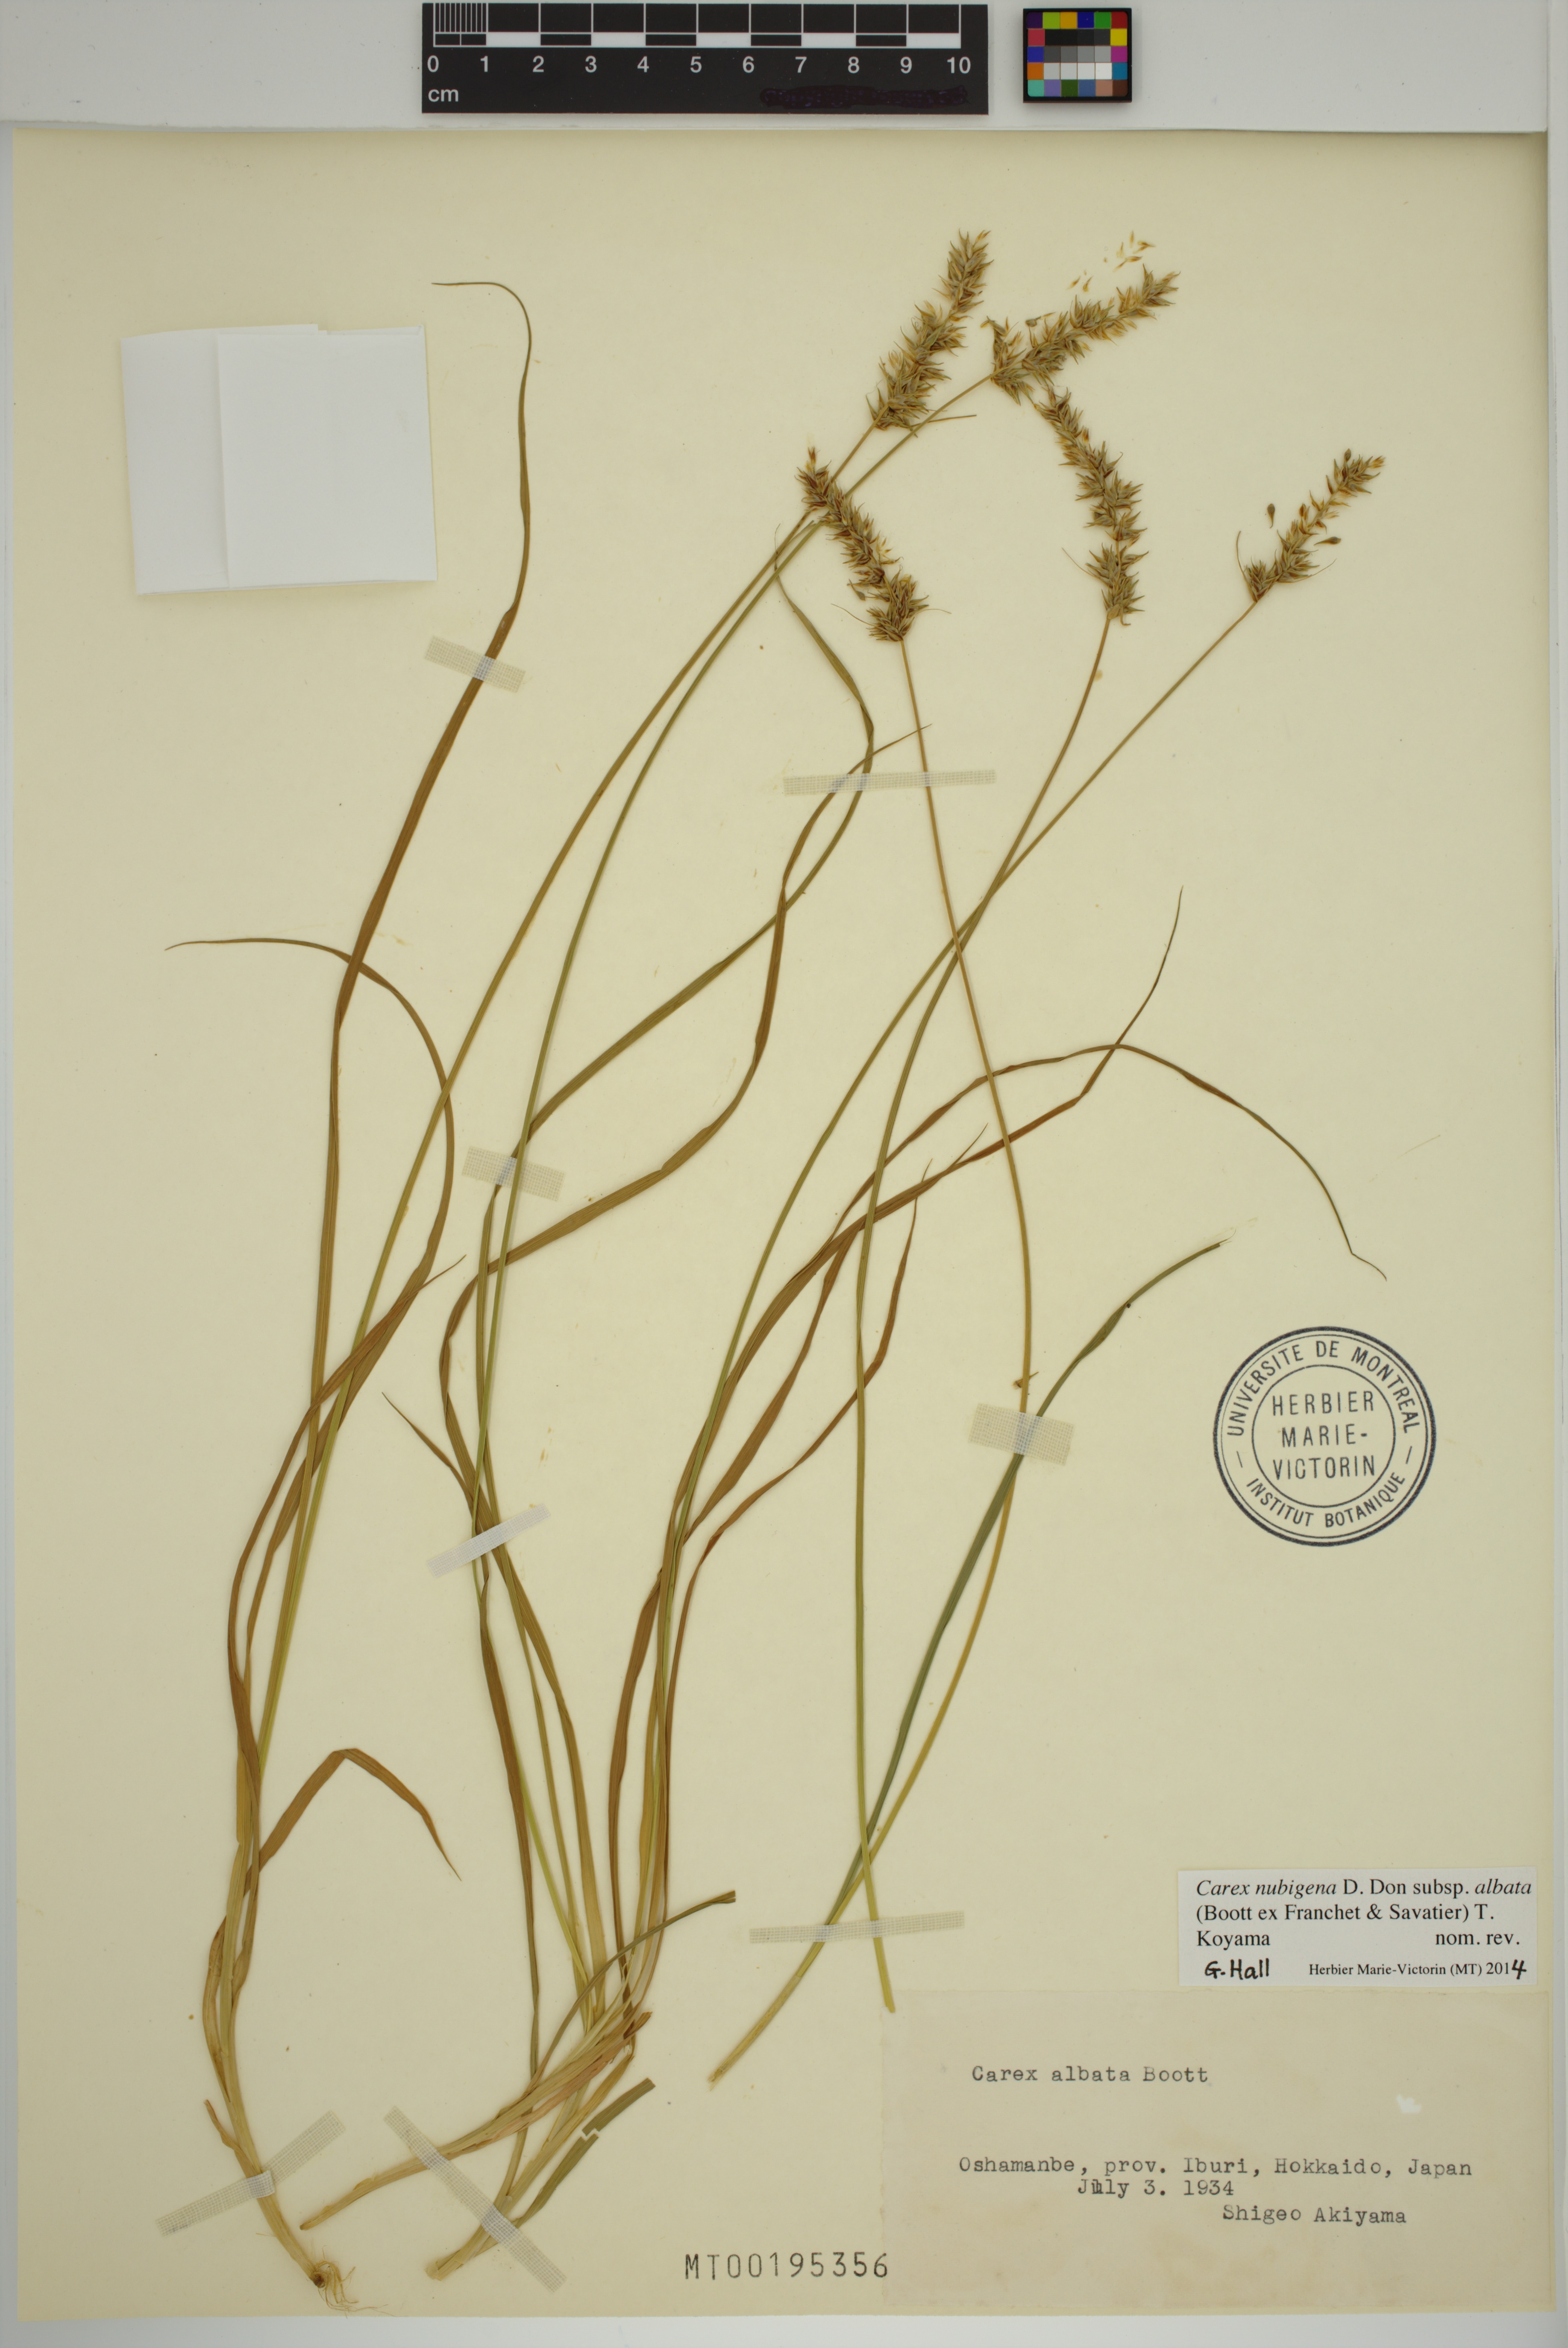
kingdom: Plantae
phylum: Tracheophyta
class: Liliopsida
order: Poales
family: Cyperaceae
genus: Carex
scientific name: Carex argyrolepis
